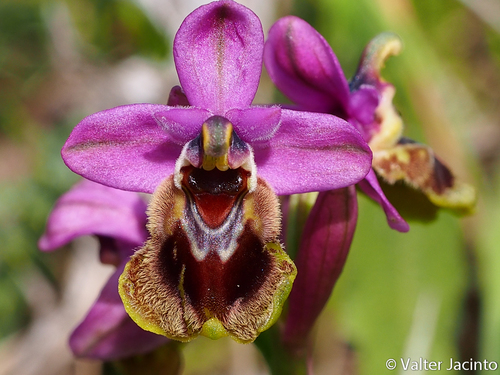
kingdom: Plantae
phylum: Tracheophyta
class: Liliopsida
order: Asparagales
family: Orchidaceae
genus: Ophrys
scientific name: Ophrys tenthredinifera
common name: Sawfly orchid
